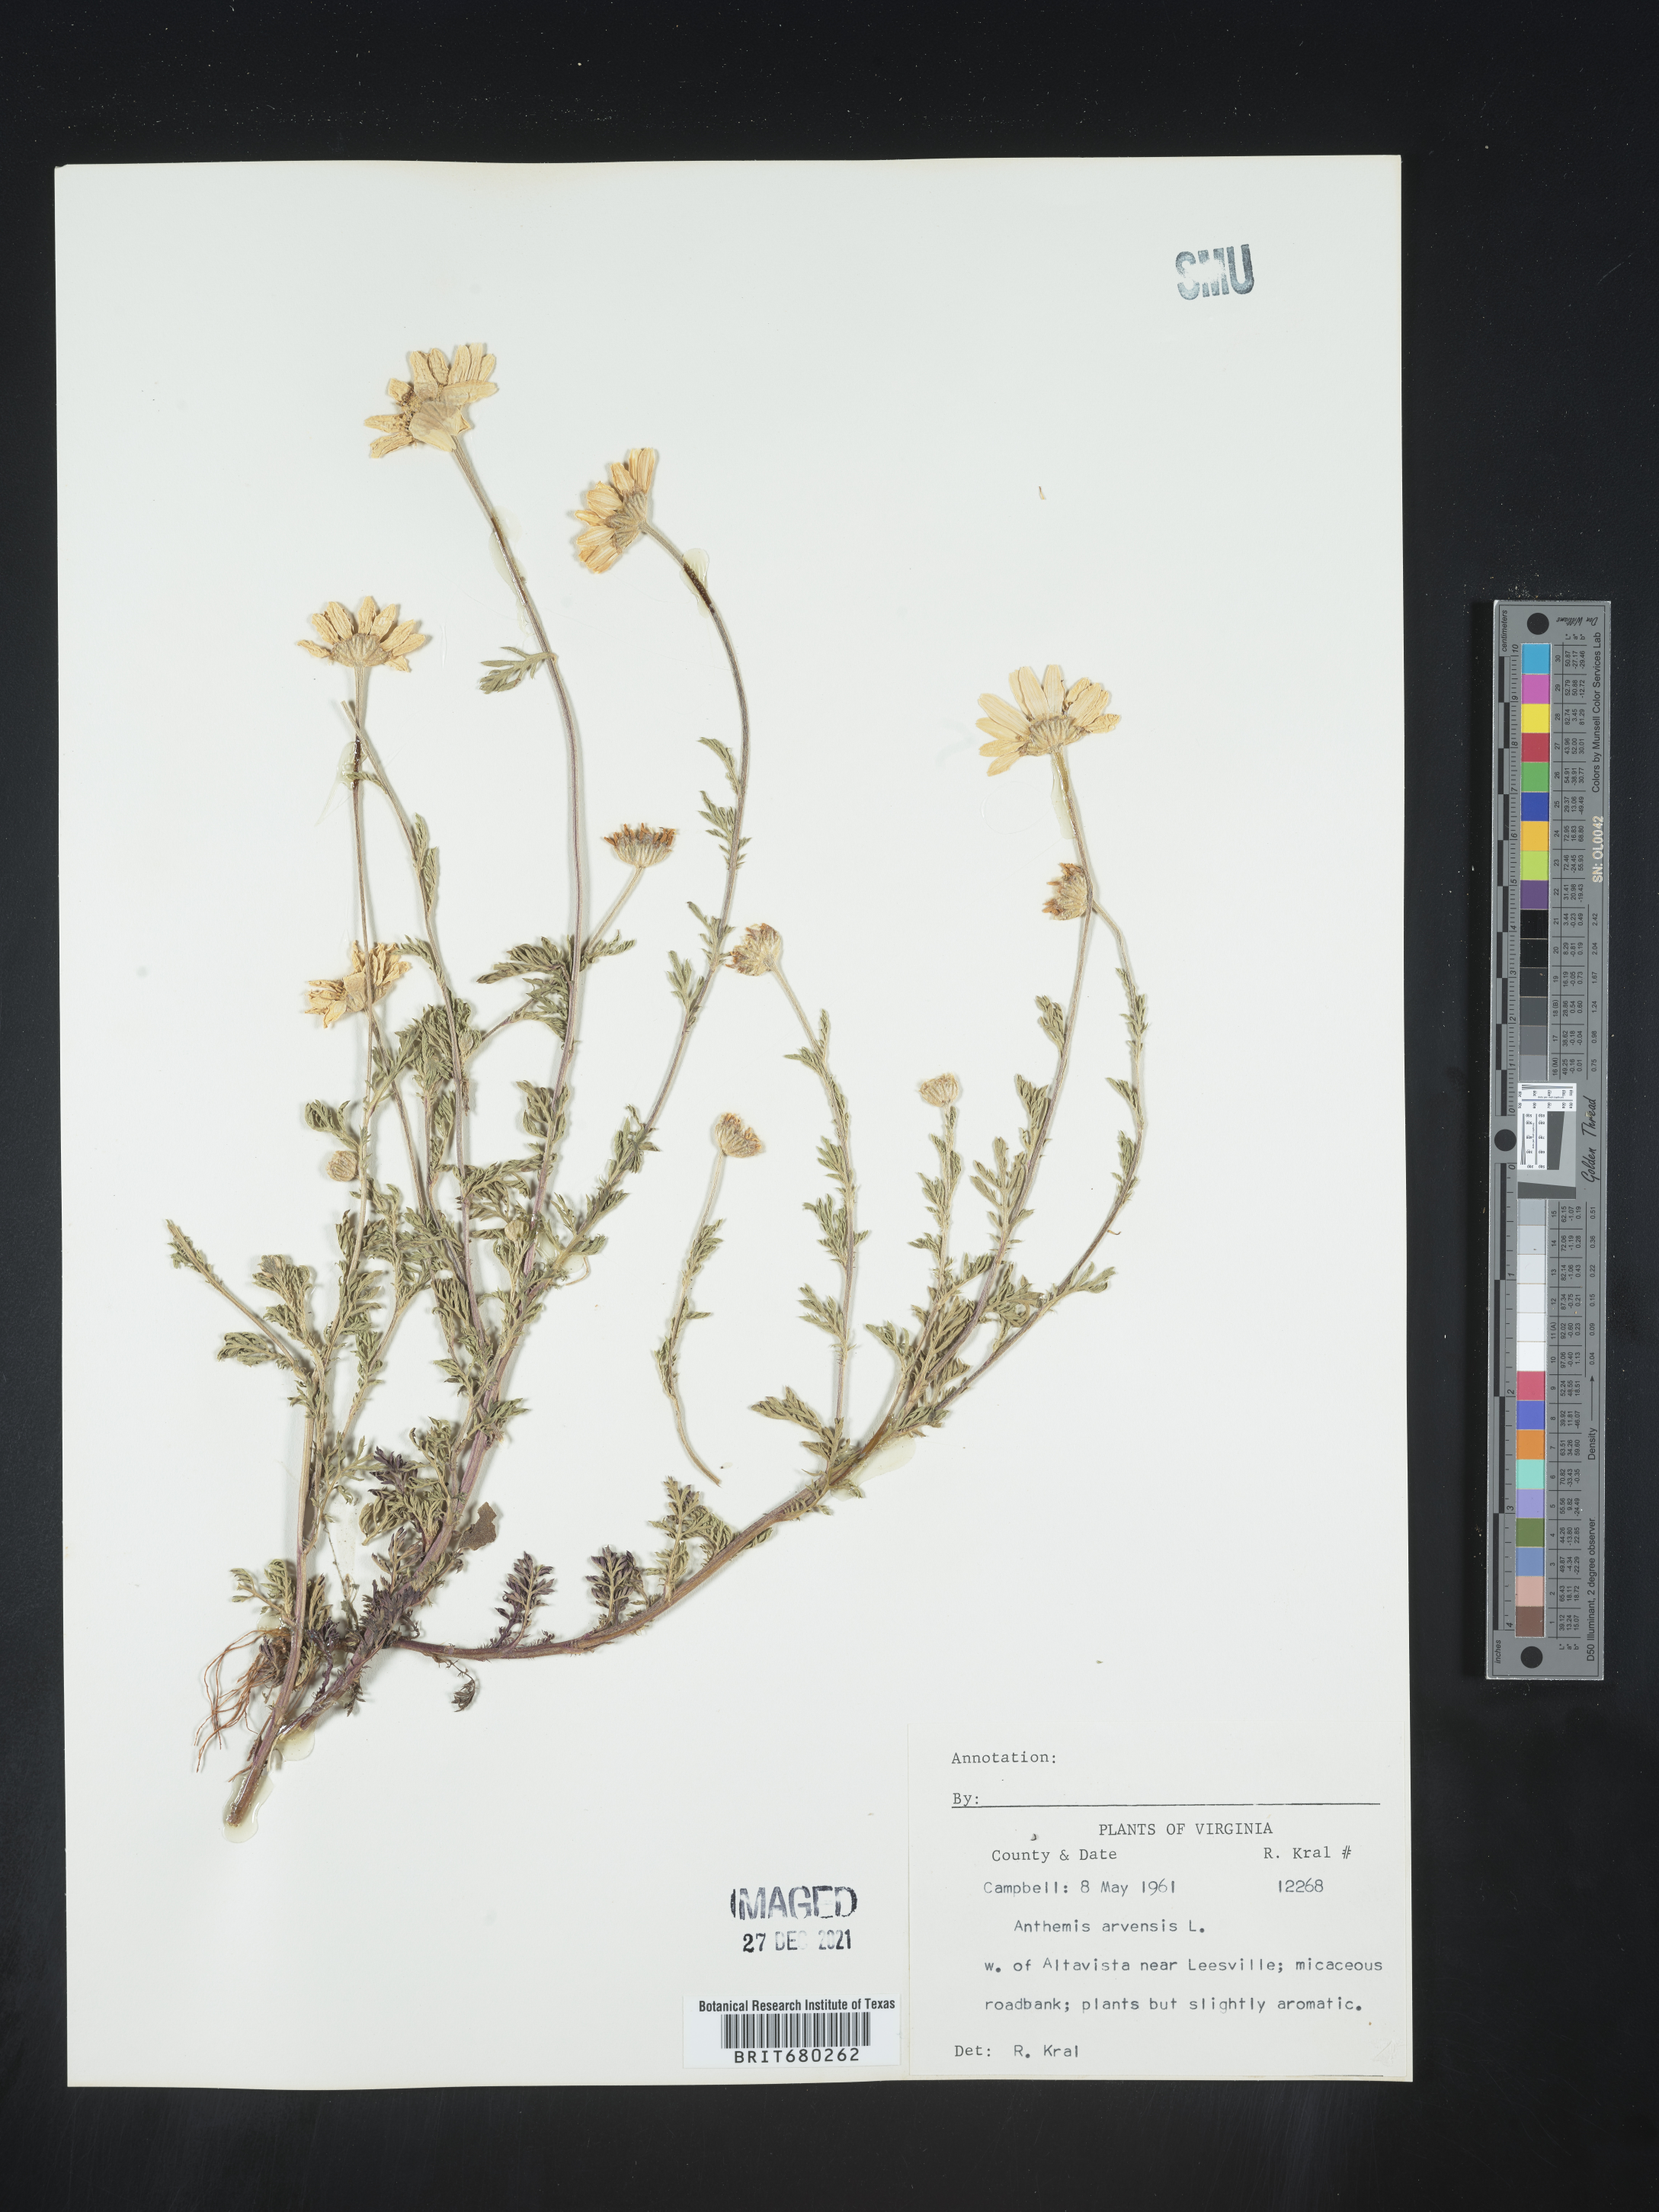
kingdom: Plantae
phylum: Tracheophyta
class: Magnoliopsida
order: Asterales
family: Asteraceae
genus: Anthemis
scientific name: Anthemis arvensis
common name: Corn chamomile
